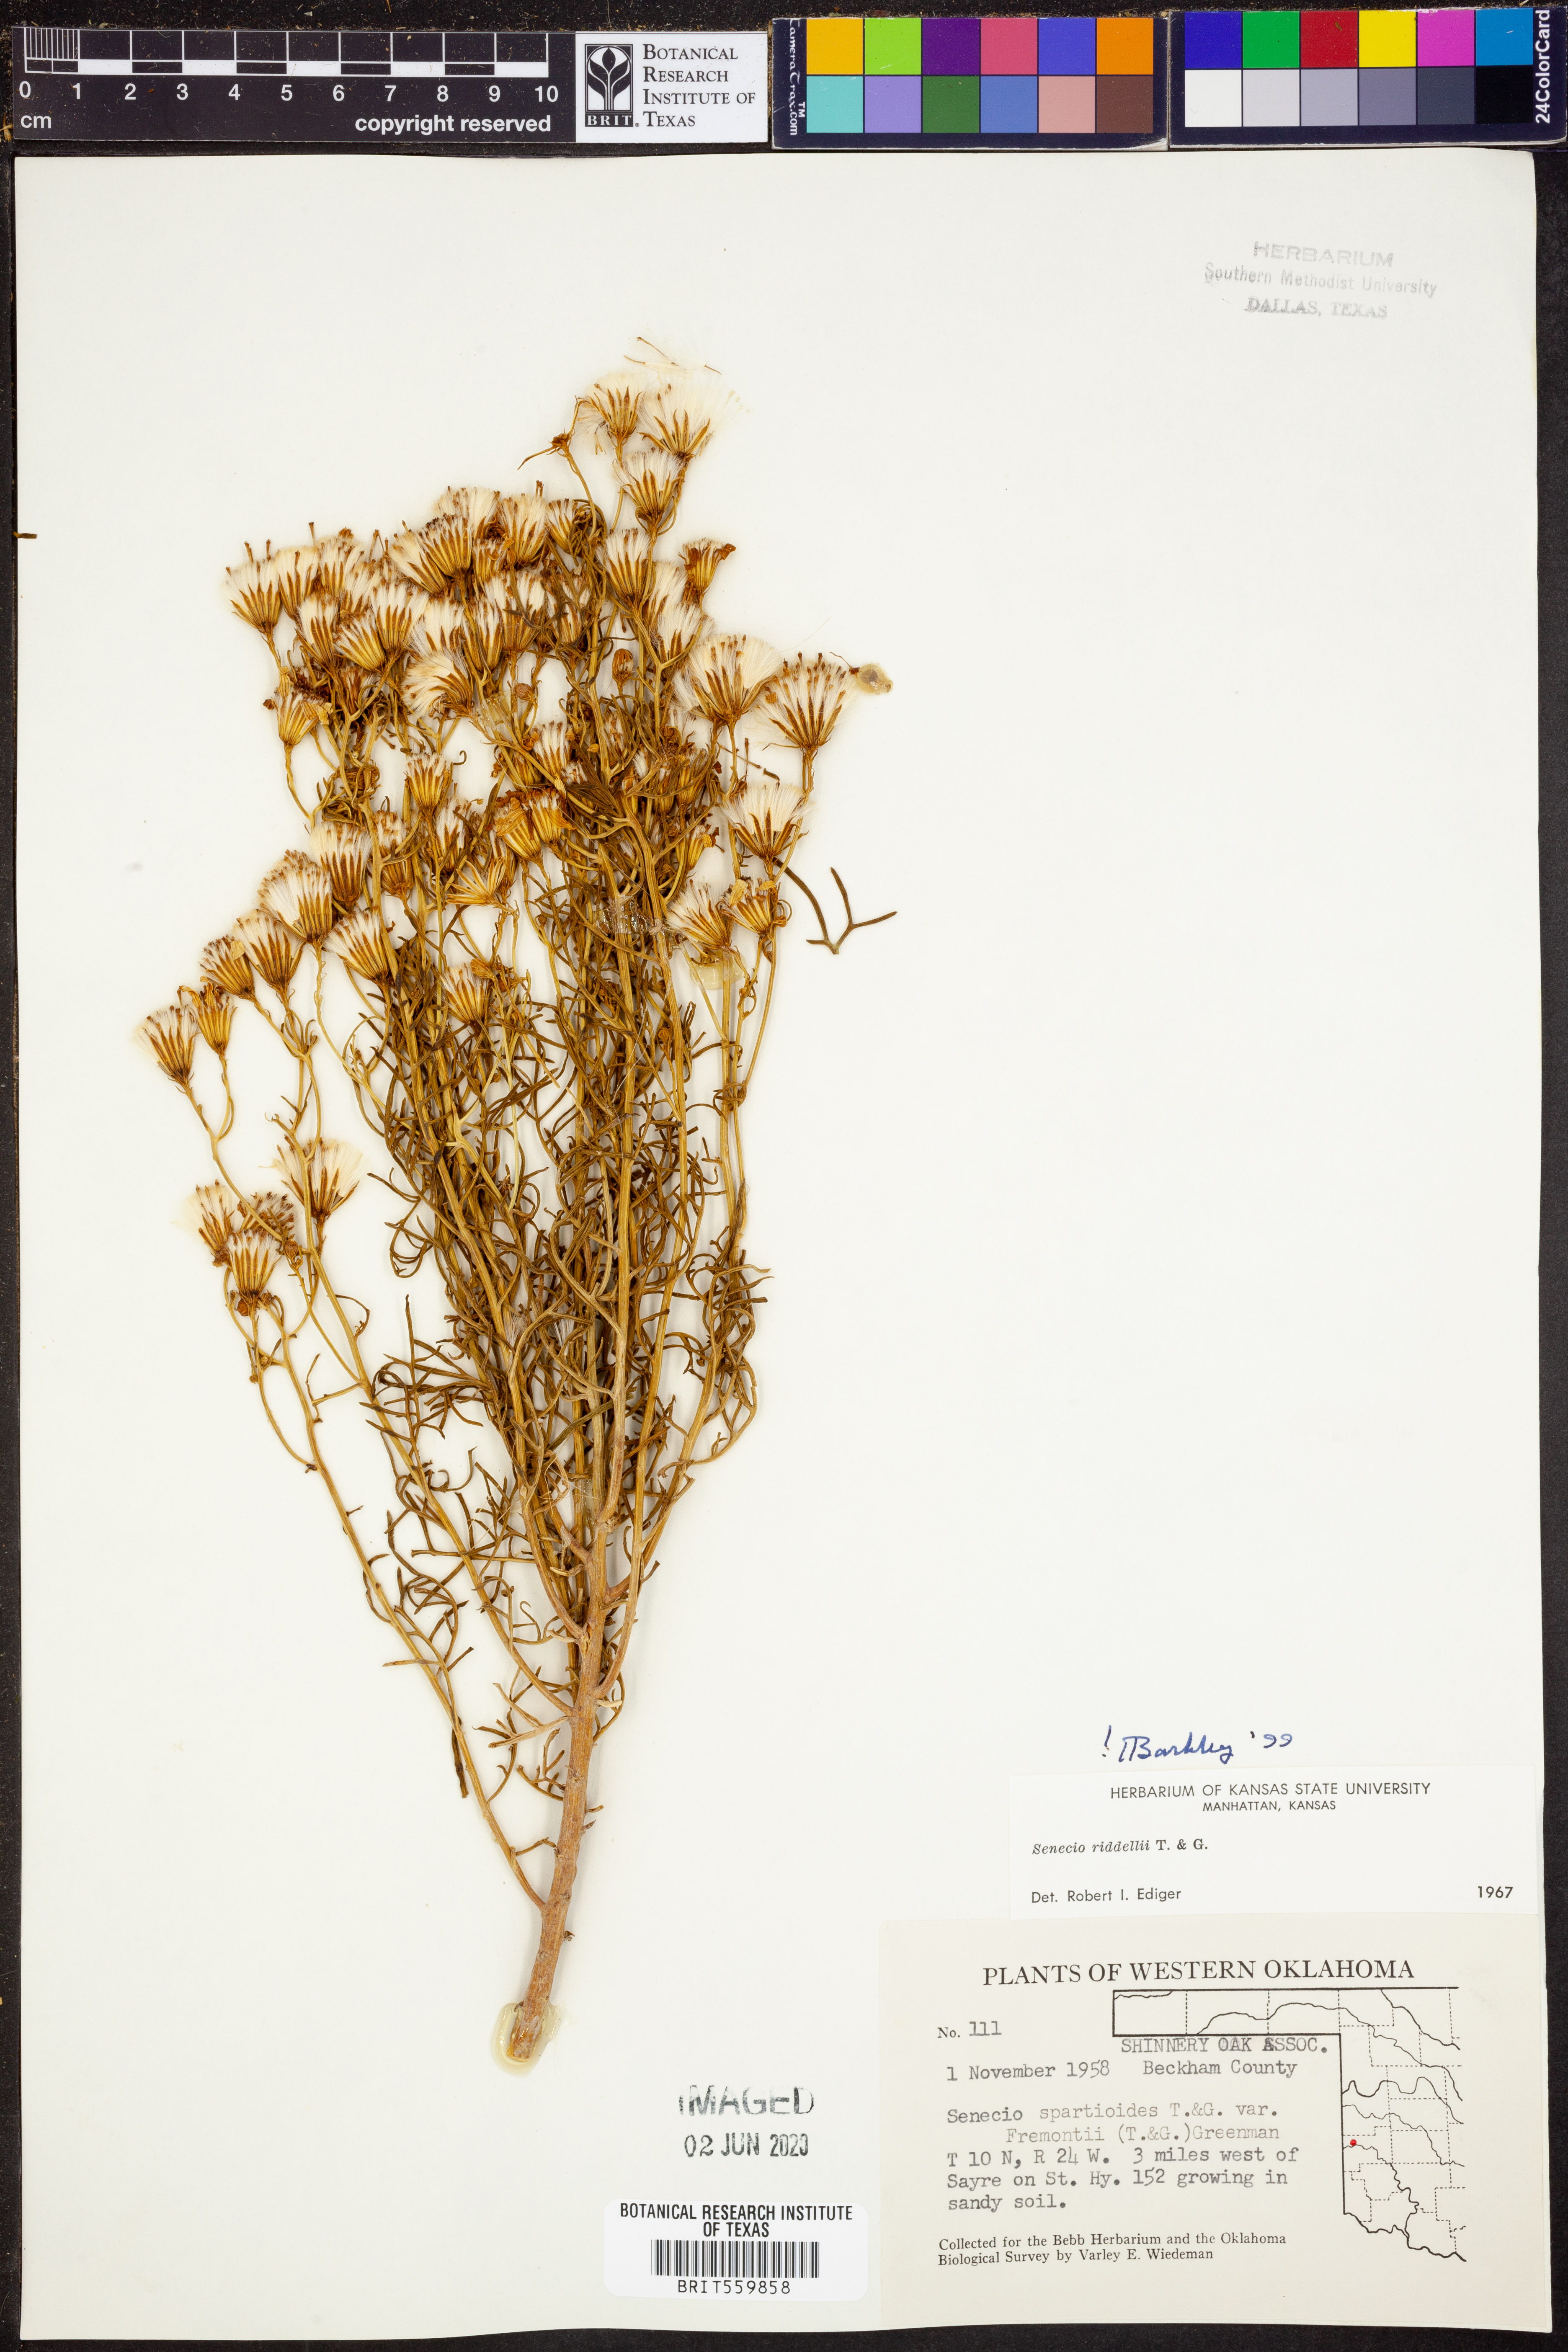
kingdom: Plantae
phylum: Tracheophyta
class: Magnoliopsida
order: Asterales
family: Asteraceae
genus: Senecio
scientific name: Senecio riddellii
